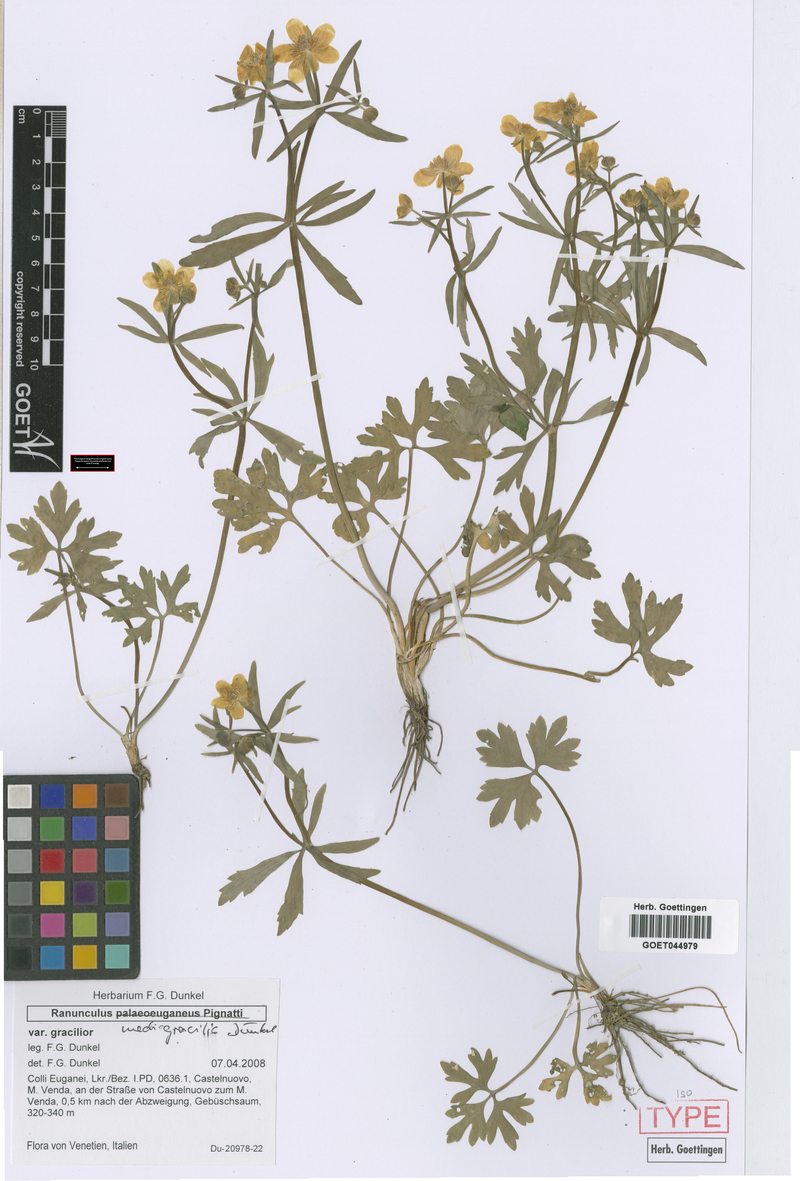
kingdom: Plantae
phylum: Tracheophyta
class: Magnoliopsida
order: Ranunculales
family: Ranunculaceae
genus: Ranunculus
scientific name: Ranunculus mediogracilis
